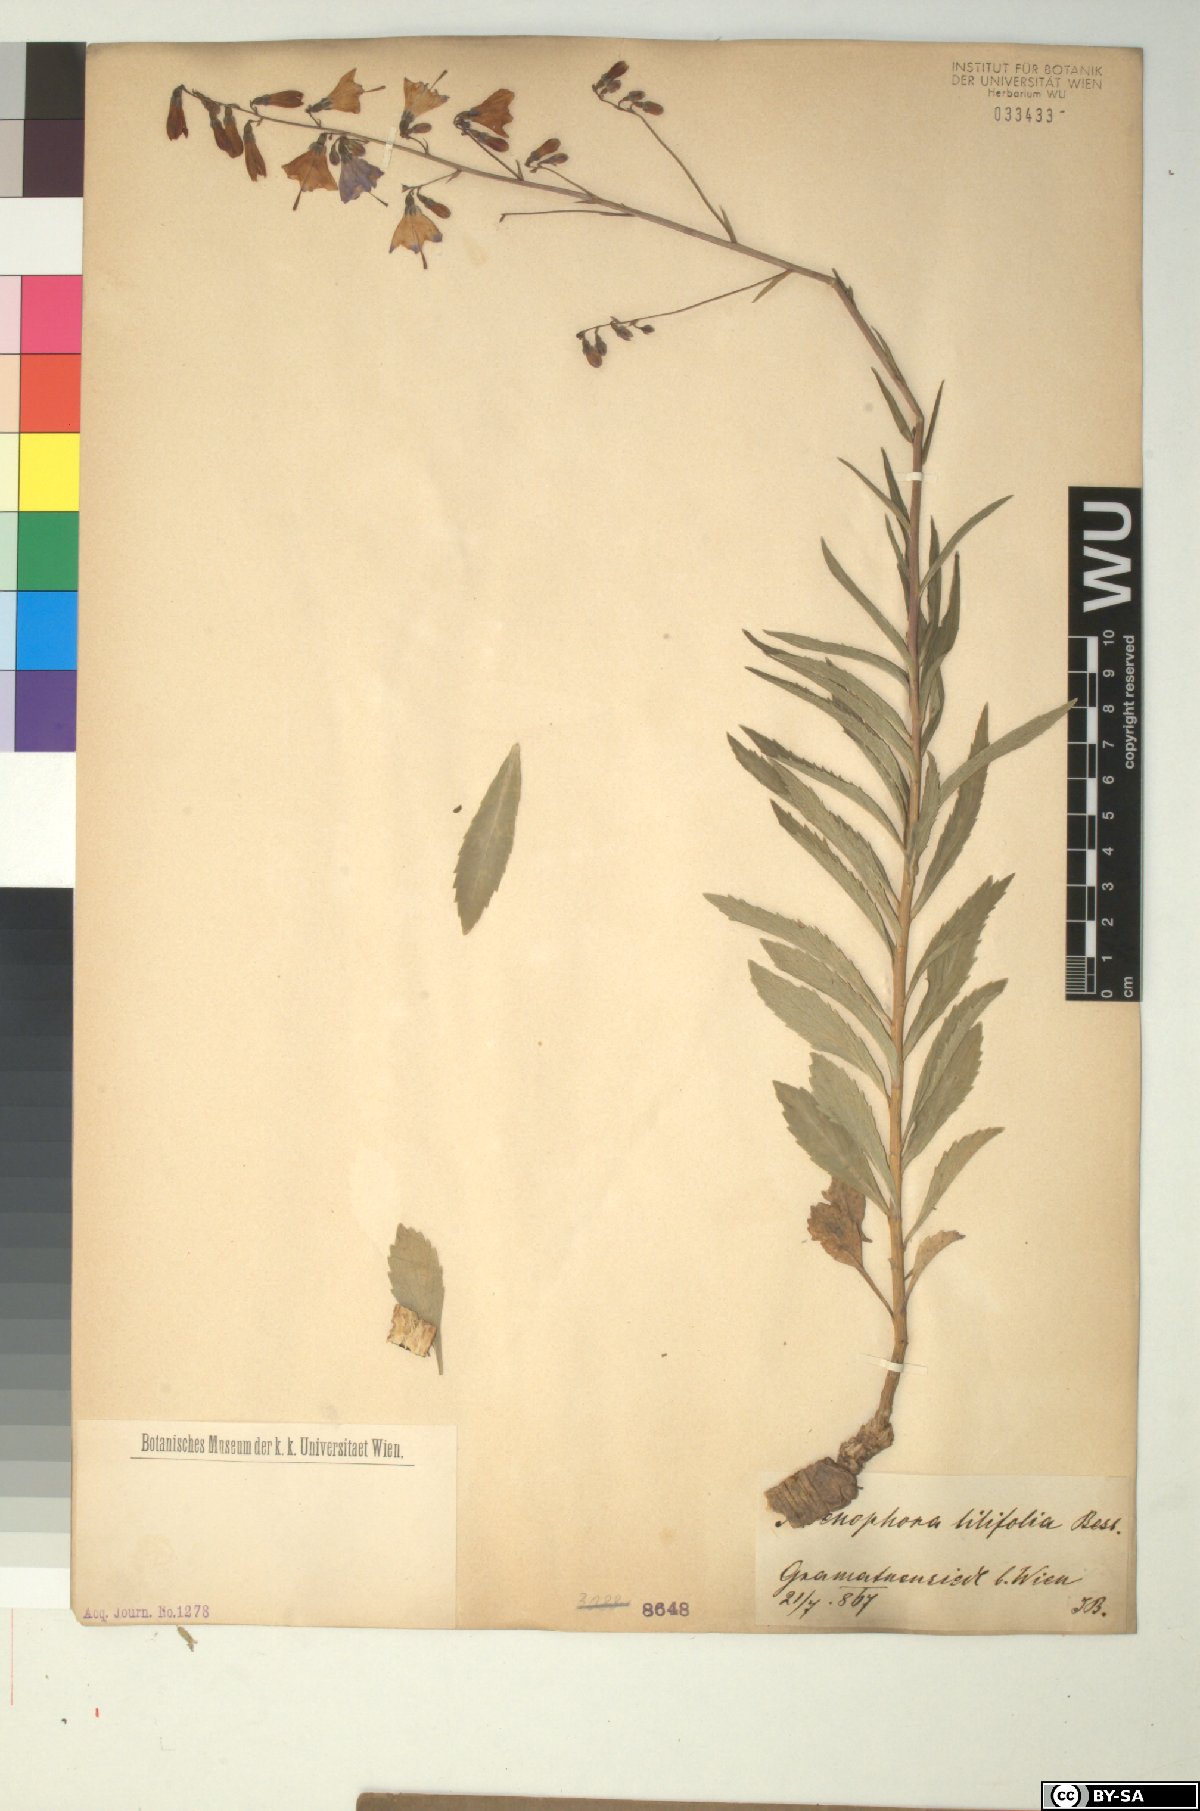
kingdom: Plantae
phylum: Tracheophyta
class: Magnoliopsida
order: Asterales
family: Campanulaceae
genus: Adenophora
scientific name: Adenophora liliifolia
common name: Lilyleaf ladybells
